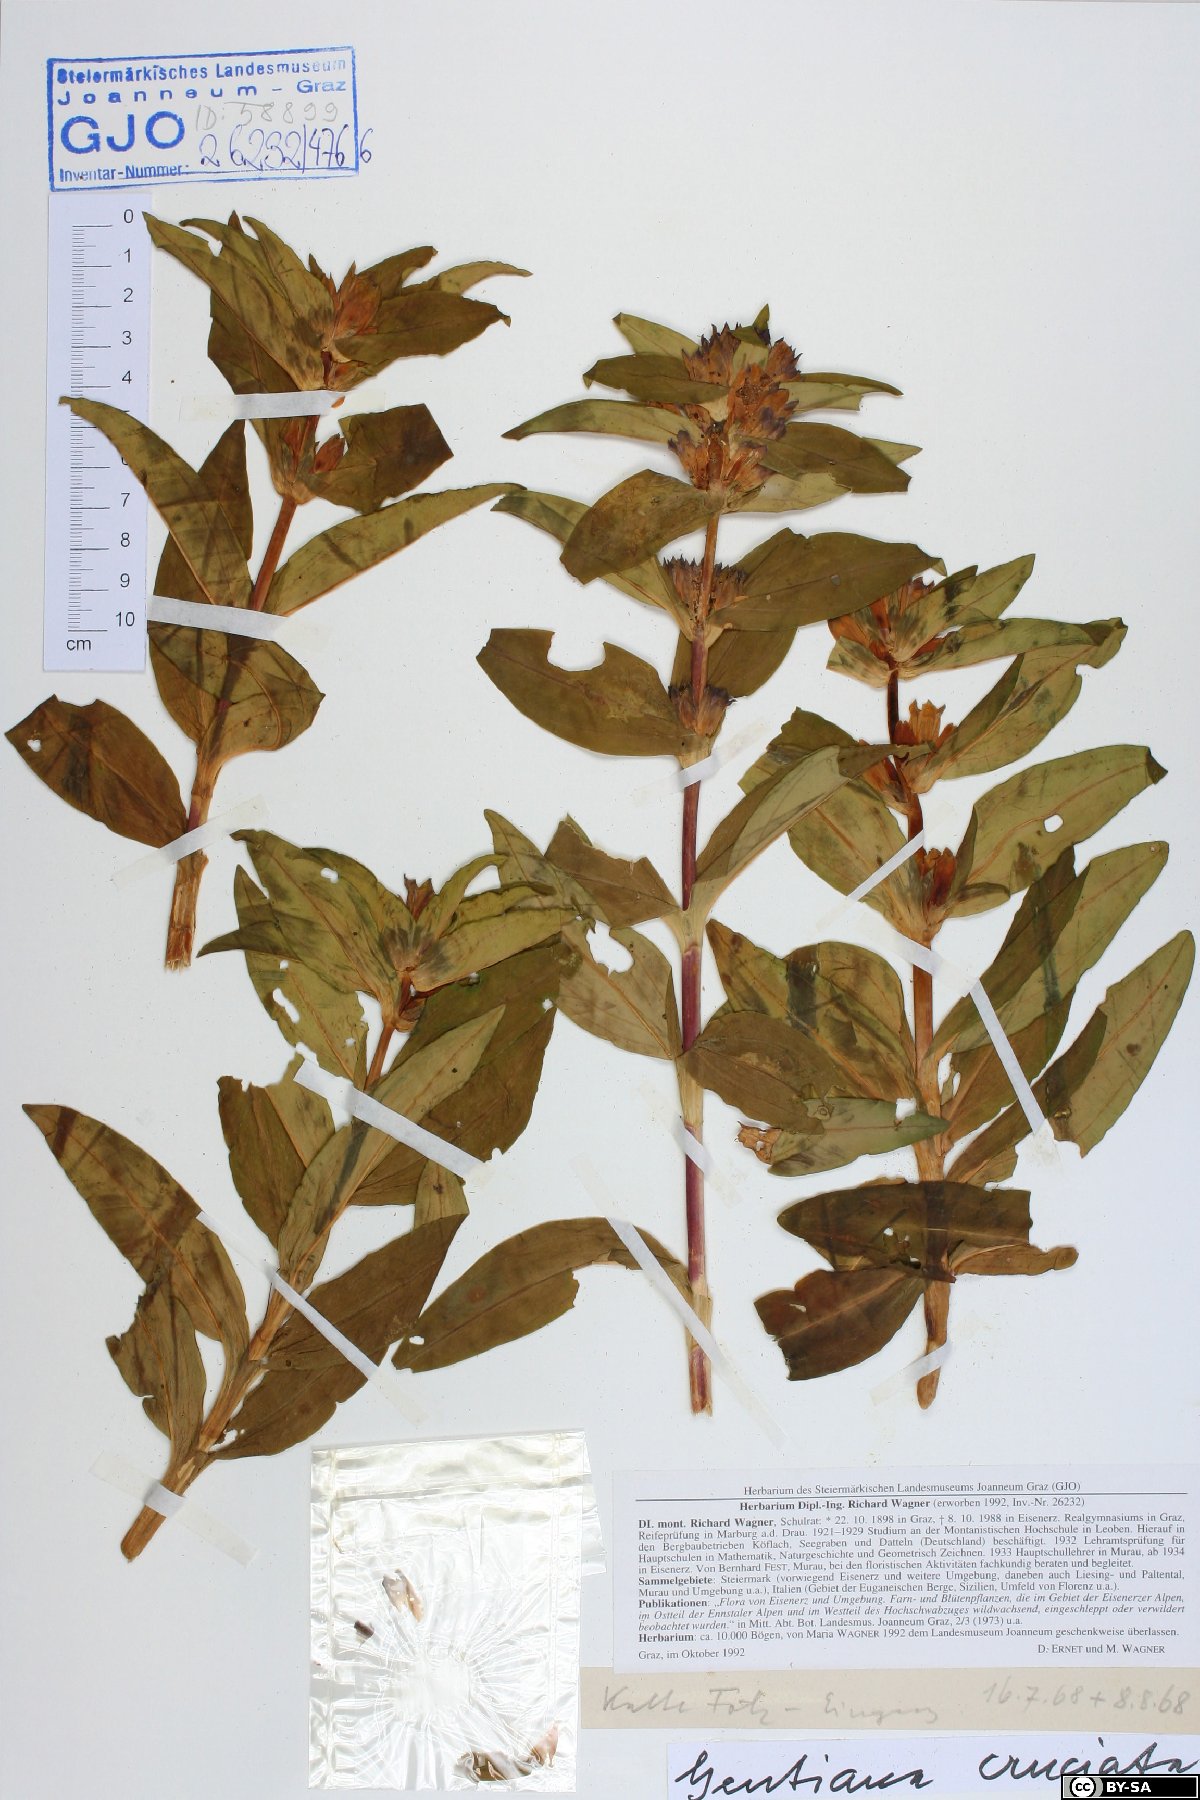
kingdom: Plantae
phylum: Tracheophyta
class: Magnoliopsida
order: Gentianales
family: Gentianaceae
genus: Gentiana
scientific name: Gentiana cruciata
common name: Cross gentian
